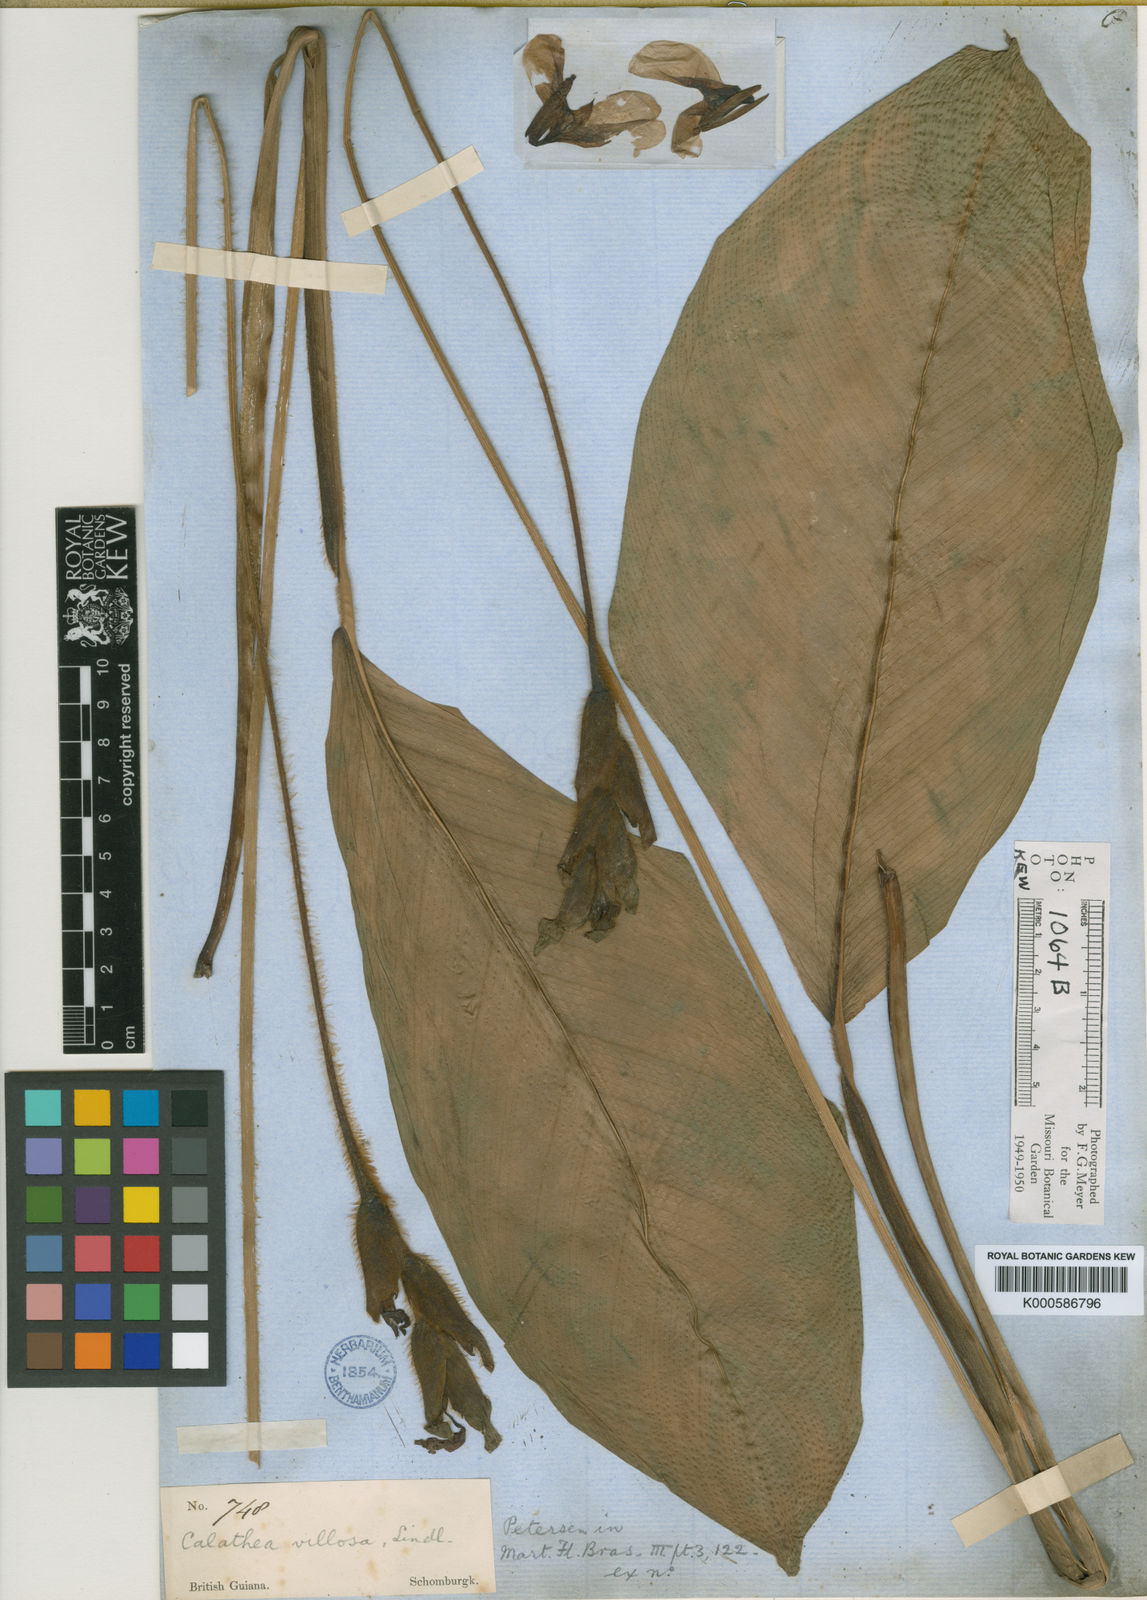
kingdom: Plantae
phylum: Tracheophyta
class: Liliopsida
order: Zingiberales
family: Marantaceae
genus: Goeppertia
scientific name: Goeppertia villosa
